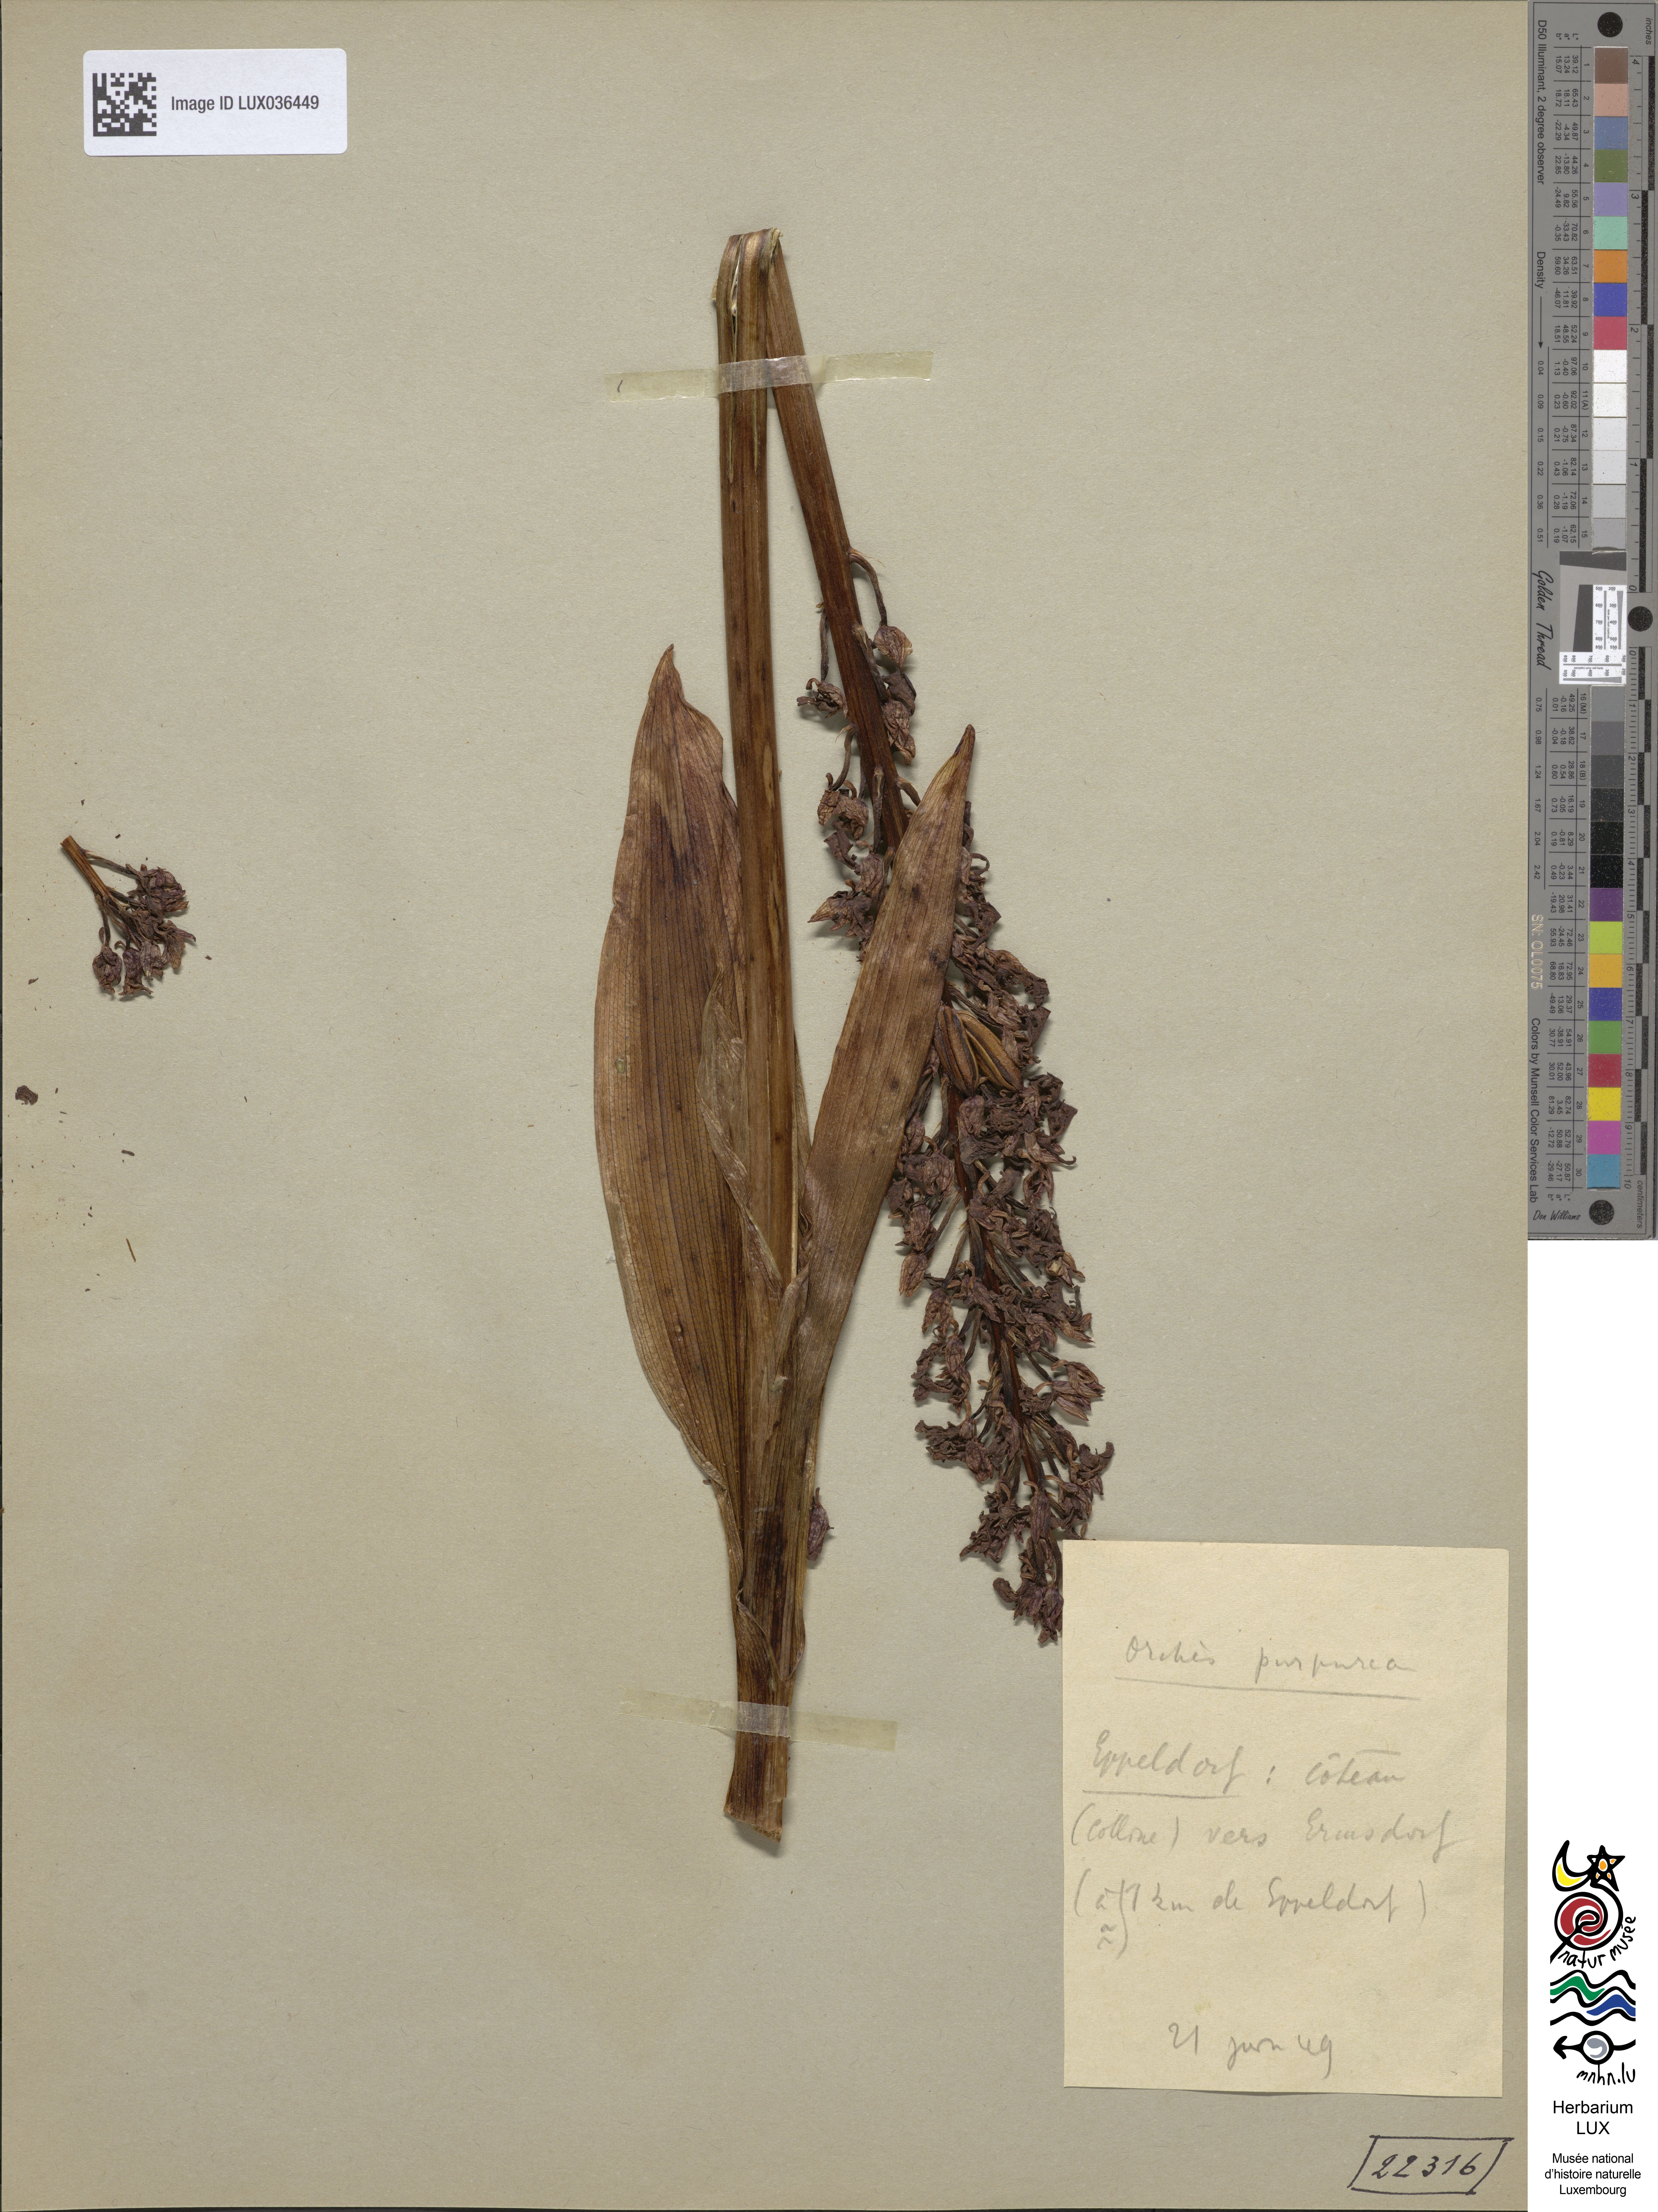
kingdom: Plantae
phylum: Tracheophyta
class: Liliopsida
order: Asparagales
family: Orchidaceae
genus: Orchis
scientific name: Orchis purpurea
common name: Lady orchid
